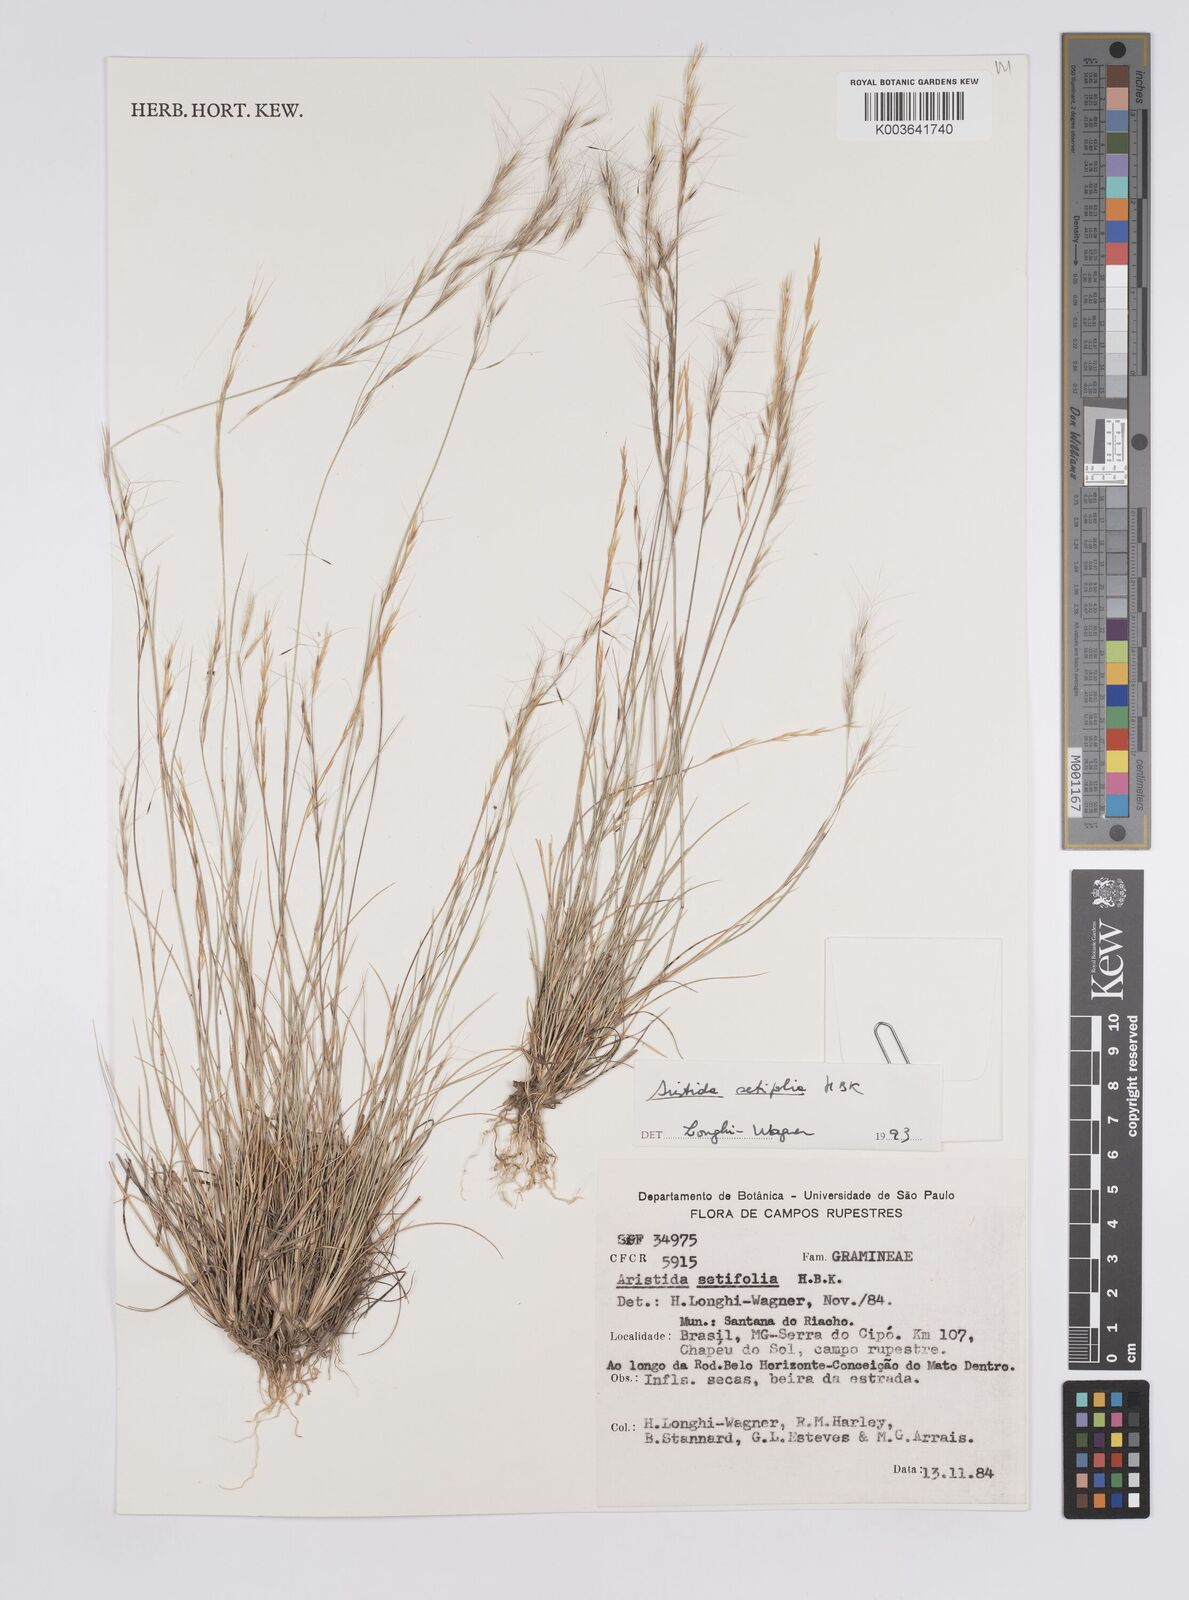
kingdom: Plantae
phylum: Tracheophyta
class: Liliopsida
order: Poales
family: Poaceae
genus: Aristida
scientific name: Aristida setifolia
